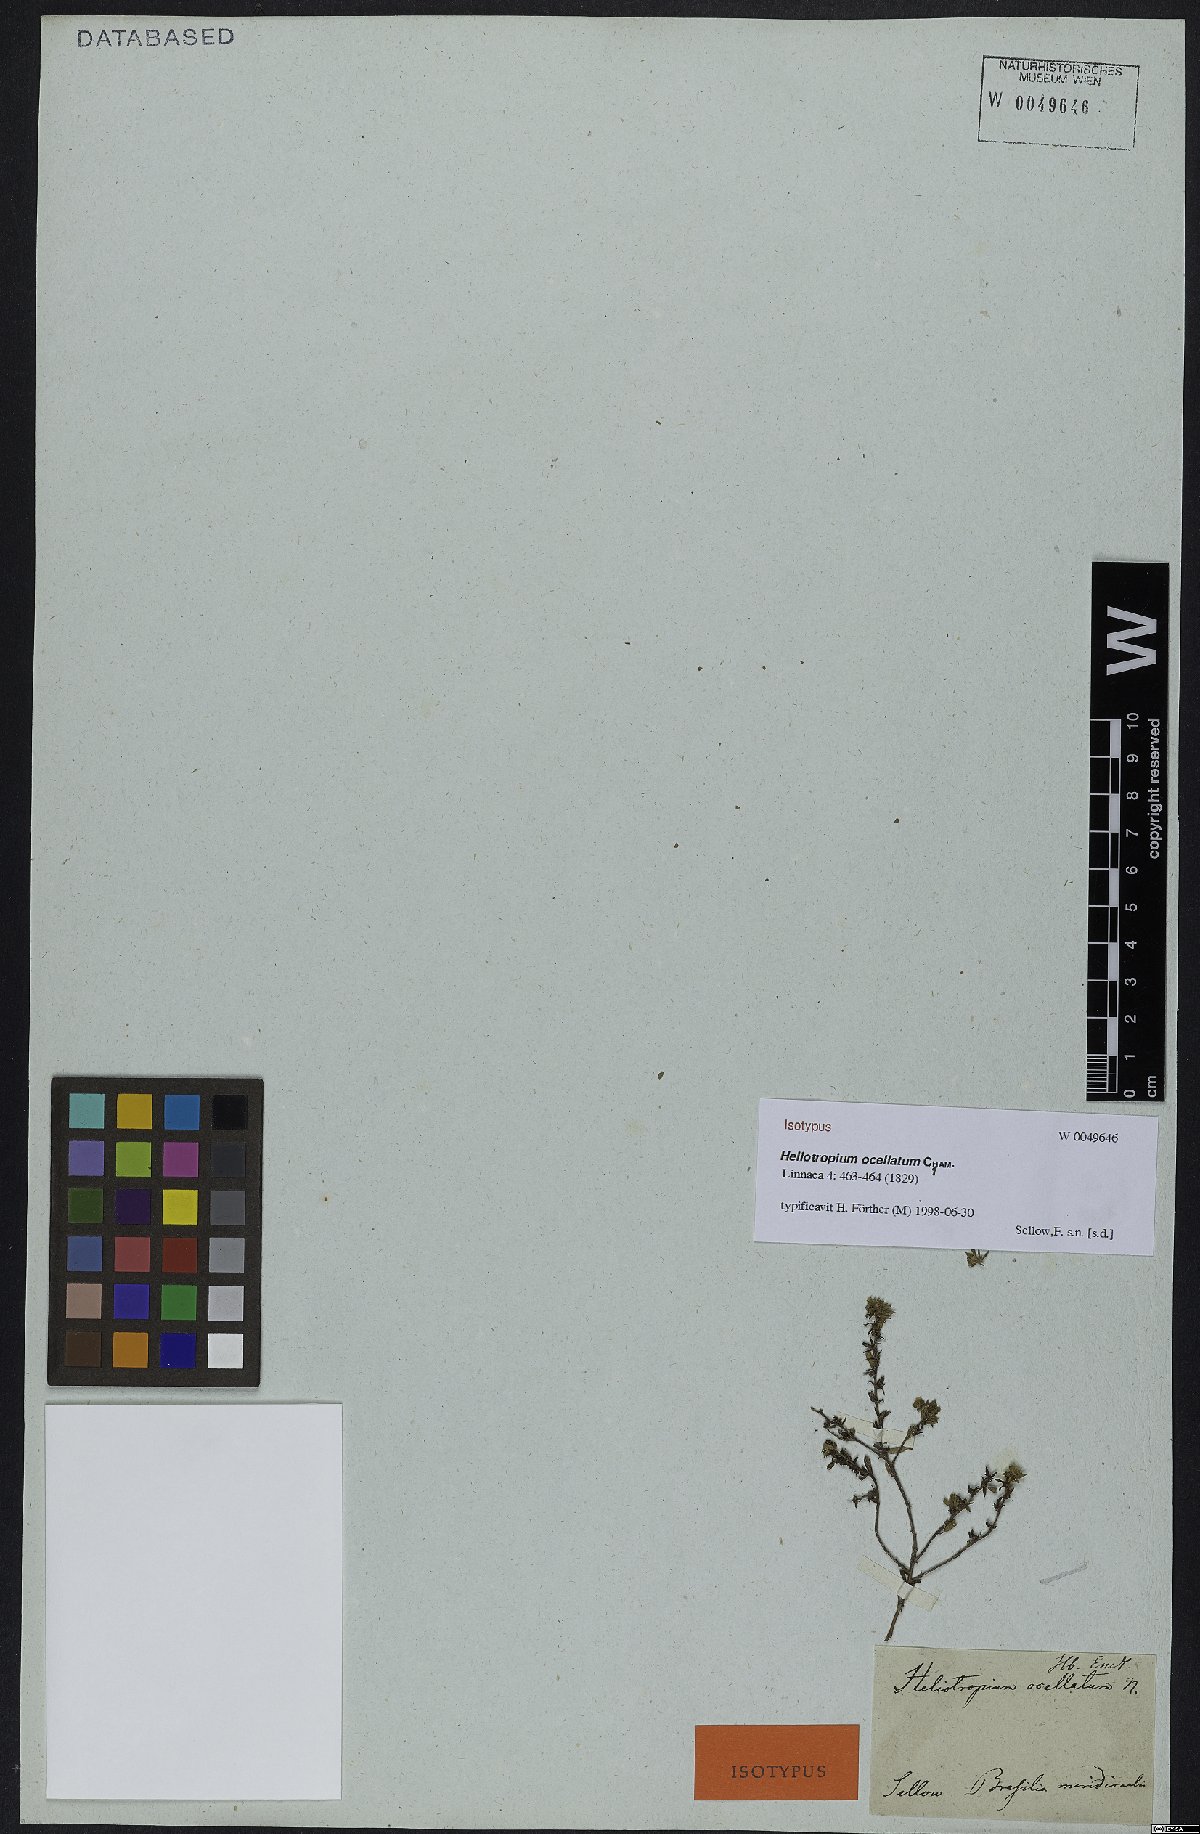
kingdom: Plantae
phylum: Tracheophyta
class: Magnoliopsida
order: Boraginales
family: Heliotropiaceae
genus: Euploca
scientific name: Euploca ocellata
